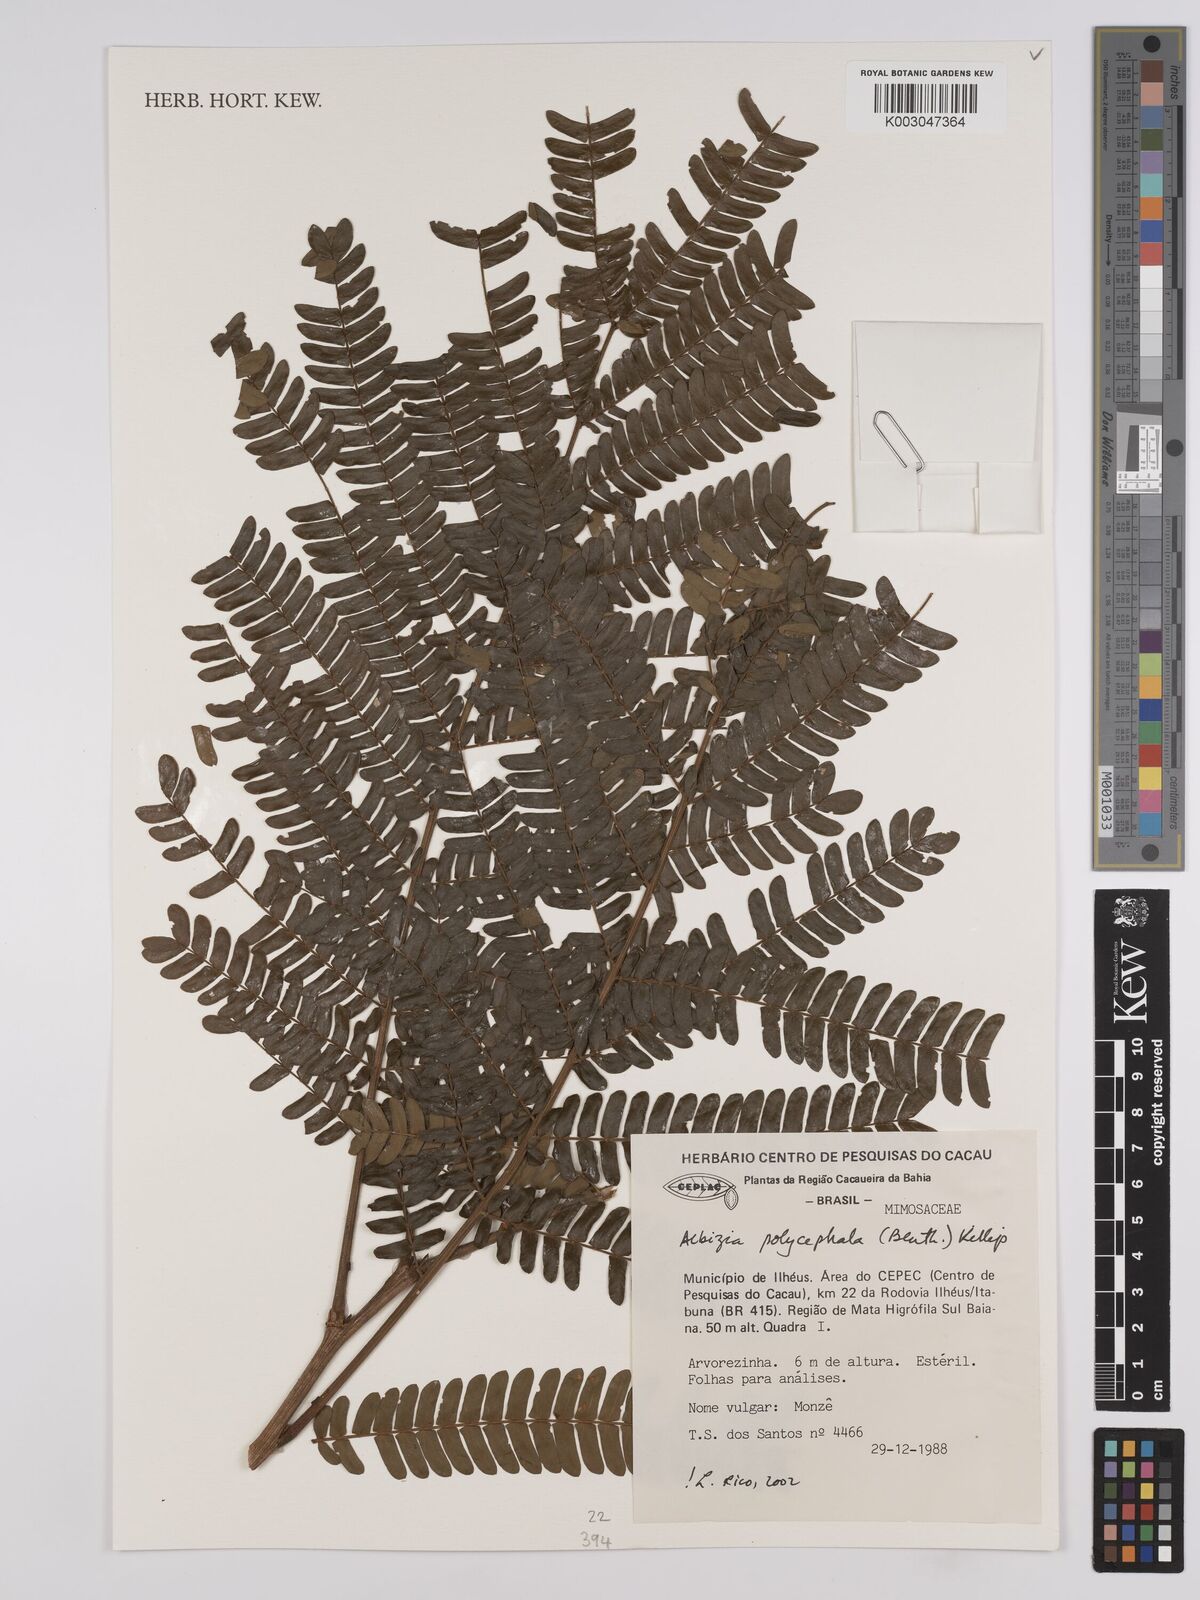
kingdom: Plantae
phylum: Tracheophyta
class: Magnoliopsida
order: Fabales
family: Fabaceae
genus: Albizia
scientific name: Albizia polycephala
